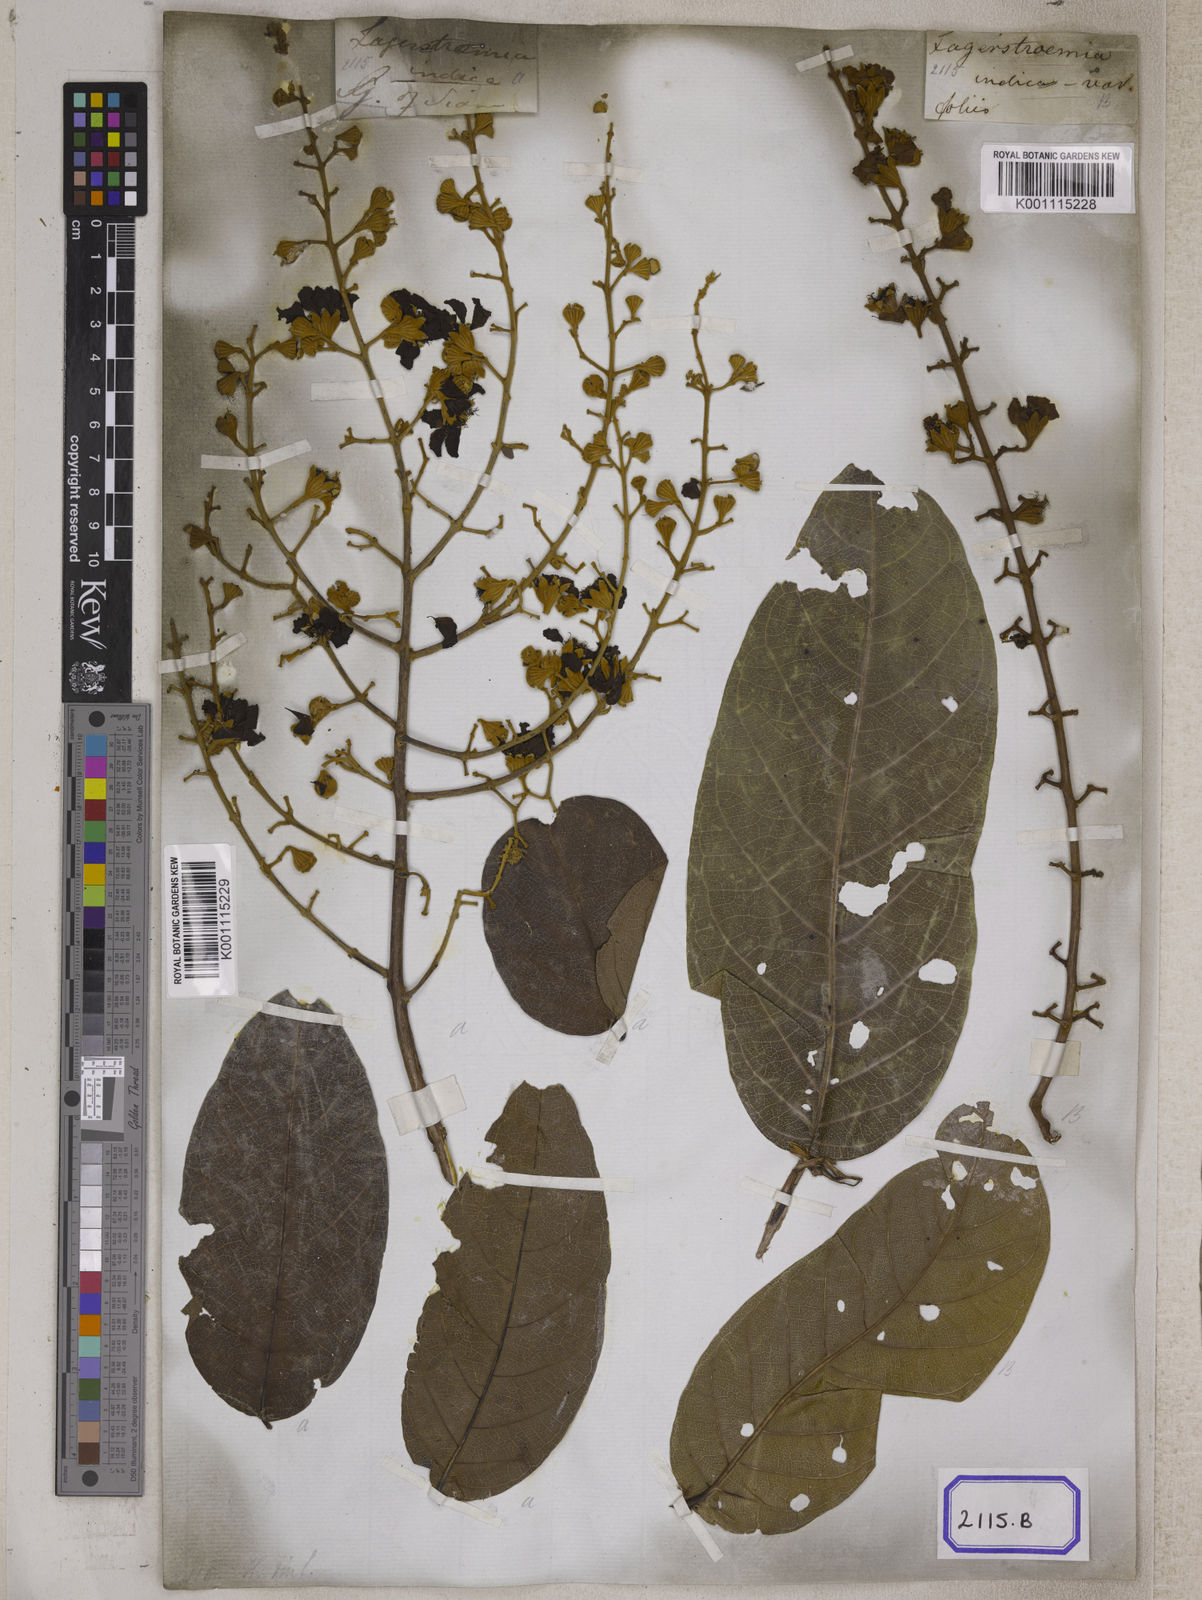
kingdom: Plantae
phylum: Tracheophyta
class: Magnoliopsida
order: Myrtales
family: Lythraceae
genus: Lagerstroemia
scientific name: Lagerstroemia floribunda
